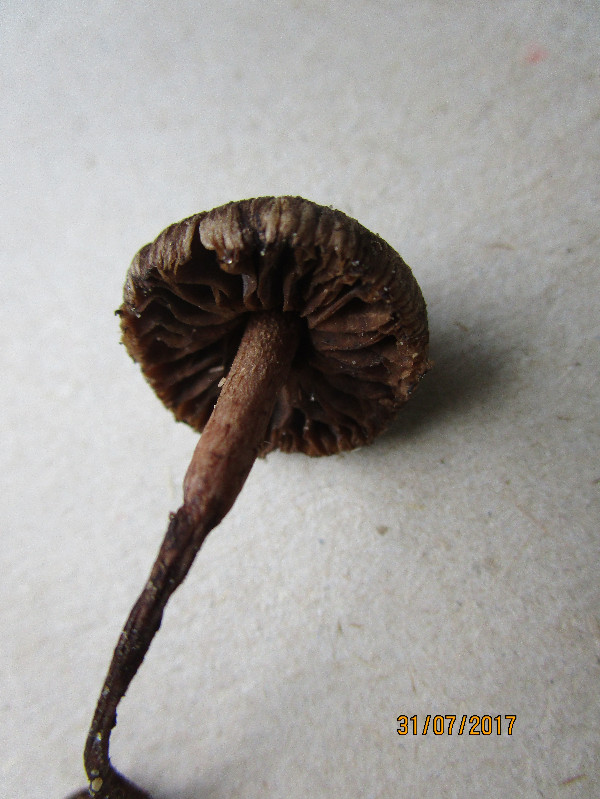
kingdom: Fungi
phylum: Basidiomycota
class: Agaricomycetes
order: Agaricales
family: Inocybaceae
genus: Inocybe
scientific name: Inocybe
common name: trævlhat
